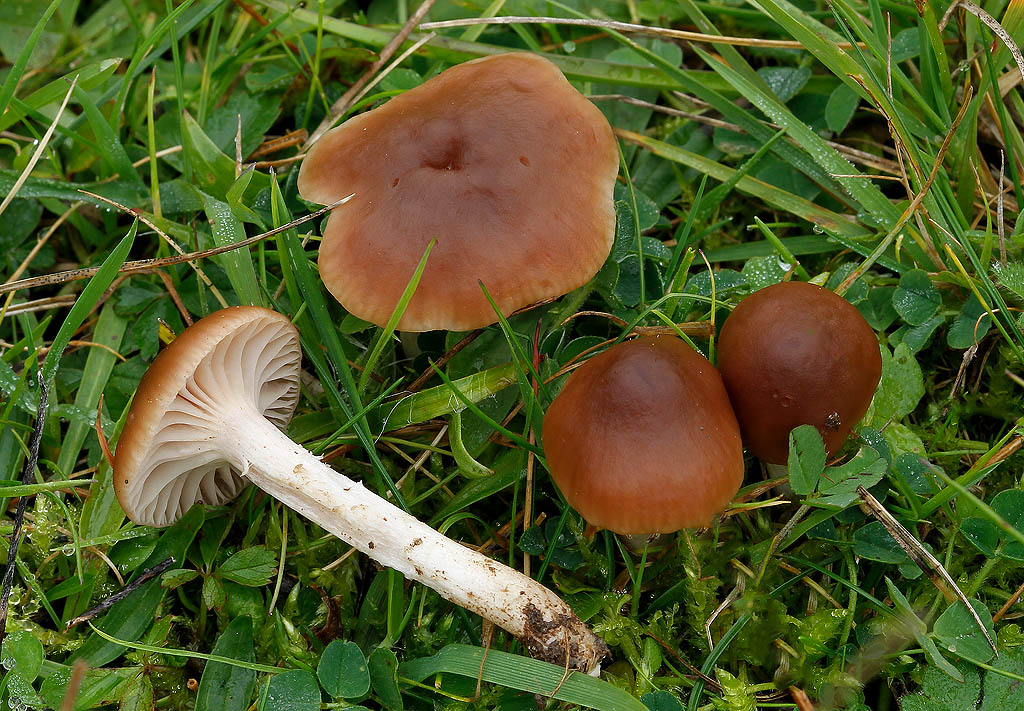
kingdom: Fungi
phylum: Basidiomycota
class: Agaricomycetes
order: Agaricales
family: Hygrophoraceae
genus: Cuphophyllus
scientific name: Cuphophyllus colemannianus
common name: rødbrun vokshat
